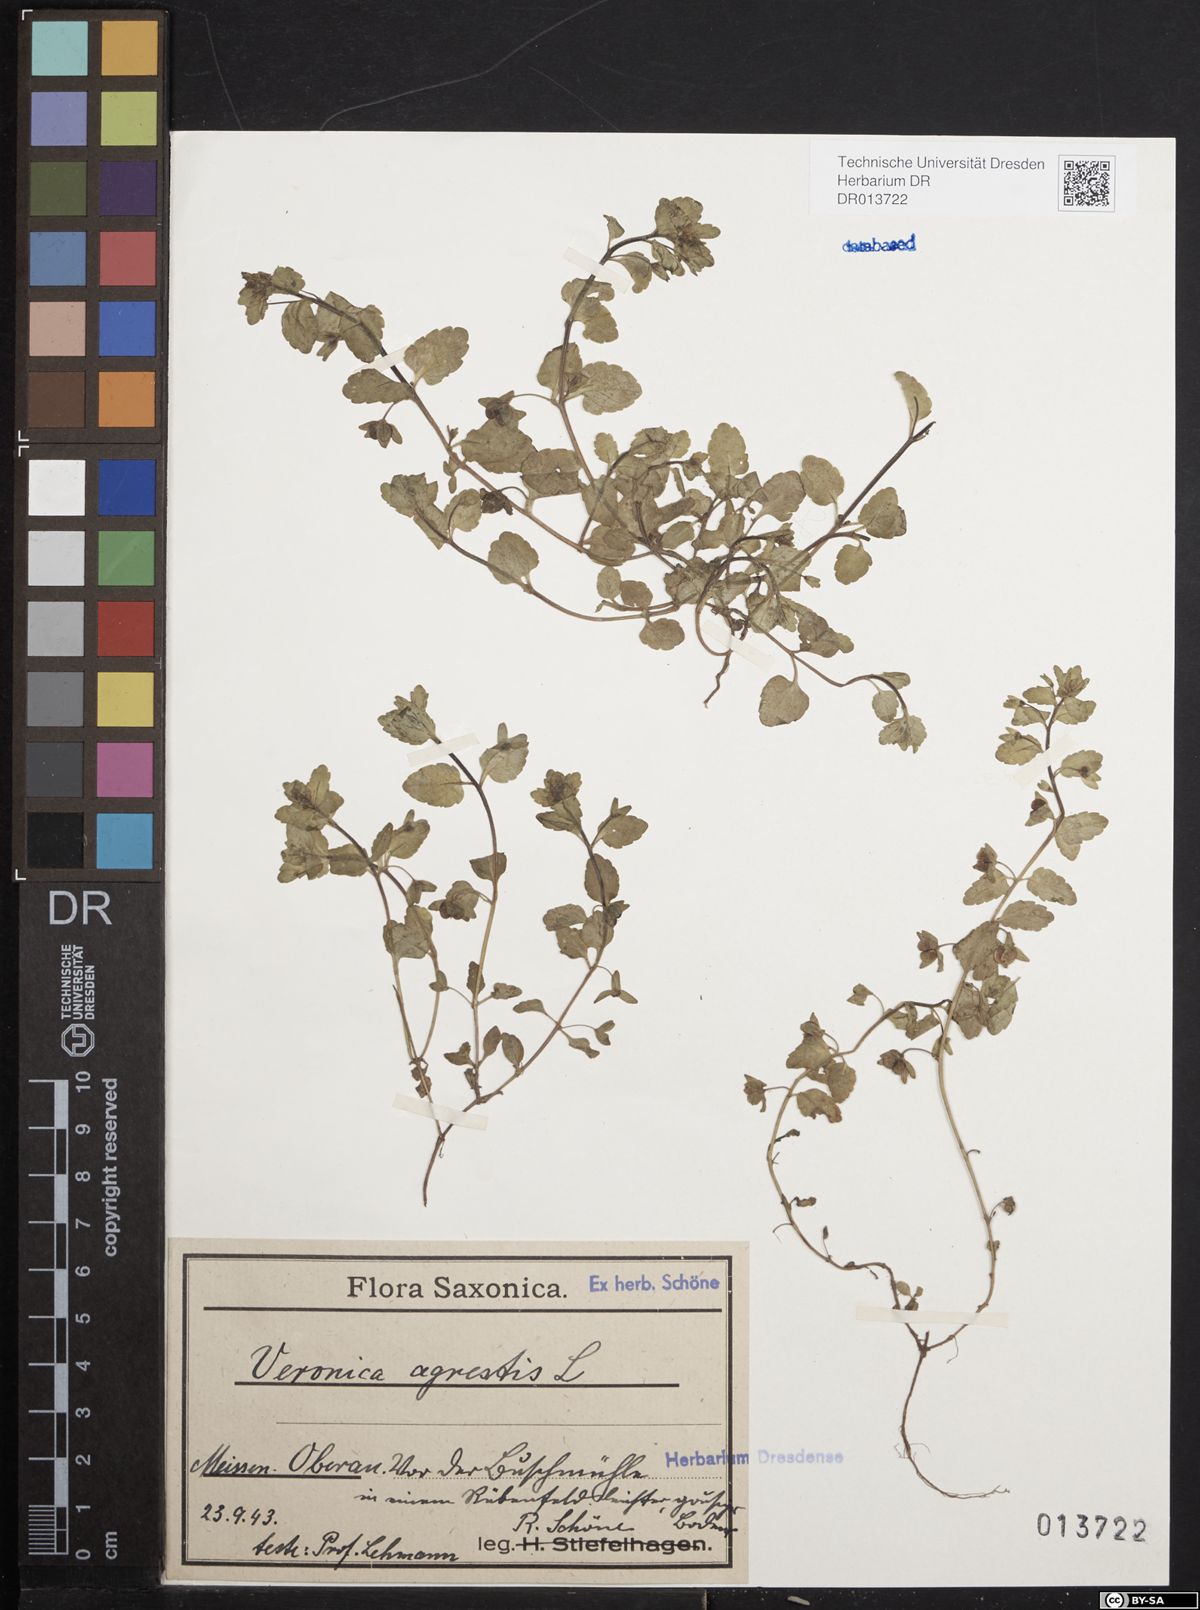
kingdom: Plantae
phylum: Tracheophyta
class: Magnoliopsida
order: Lamiales
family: Plantaginaceae
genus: Veronica
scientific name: Veronica agrestis
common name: Green field-speedwell
